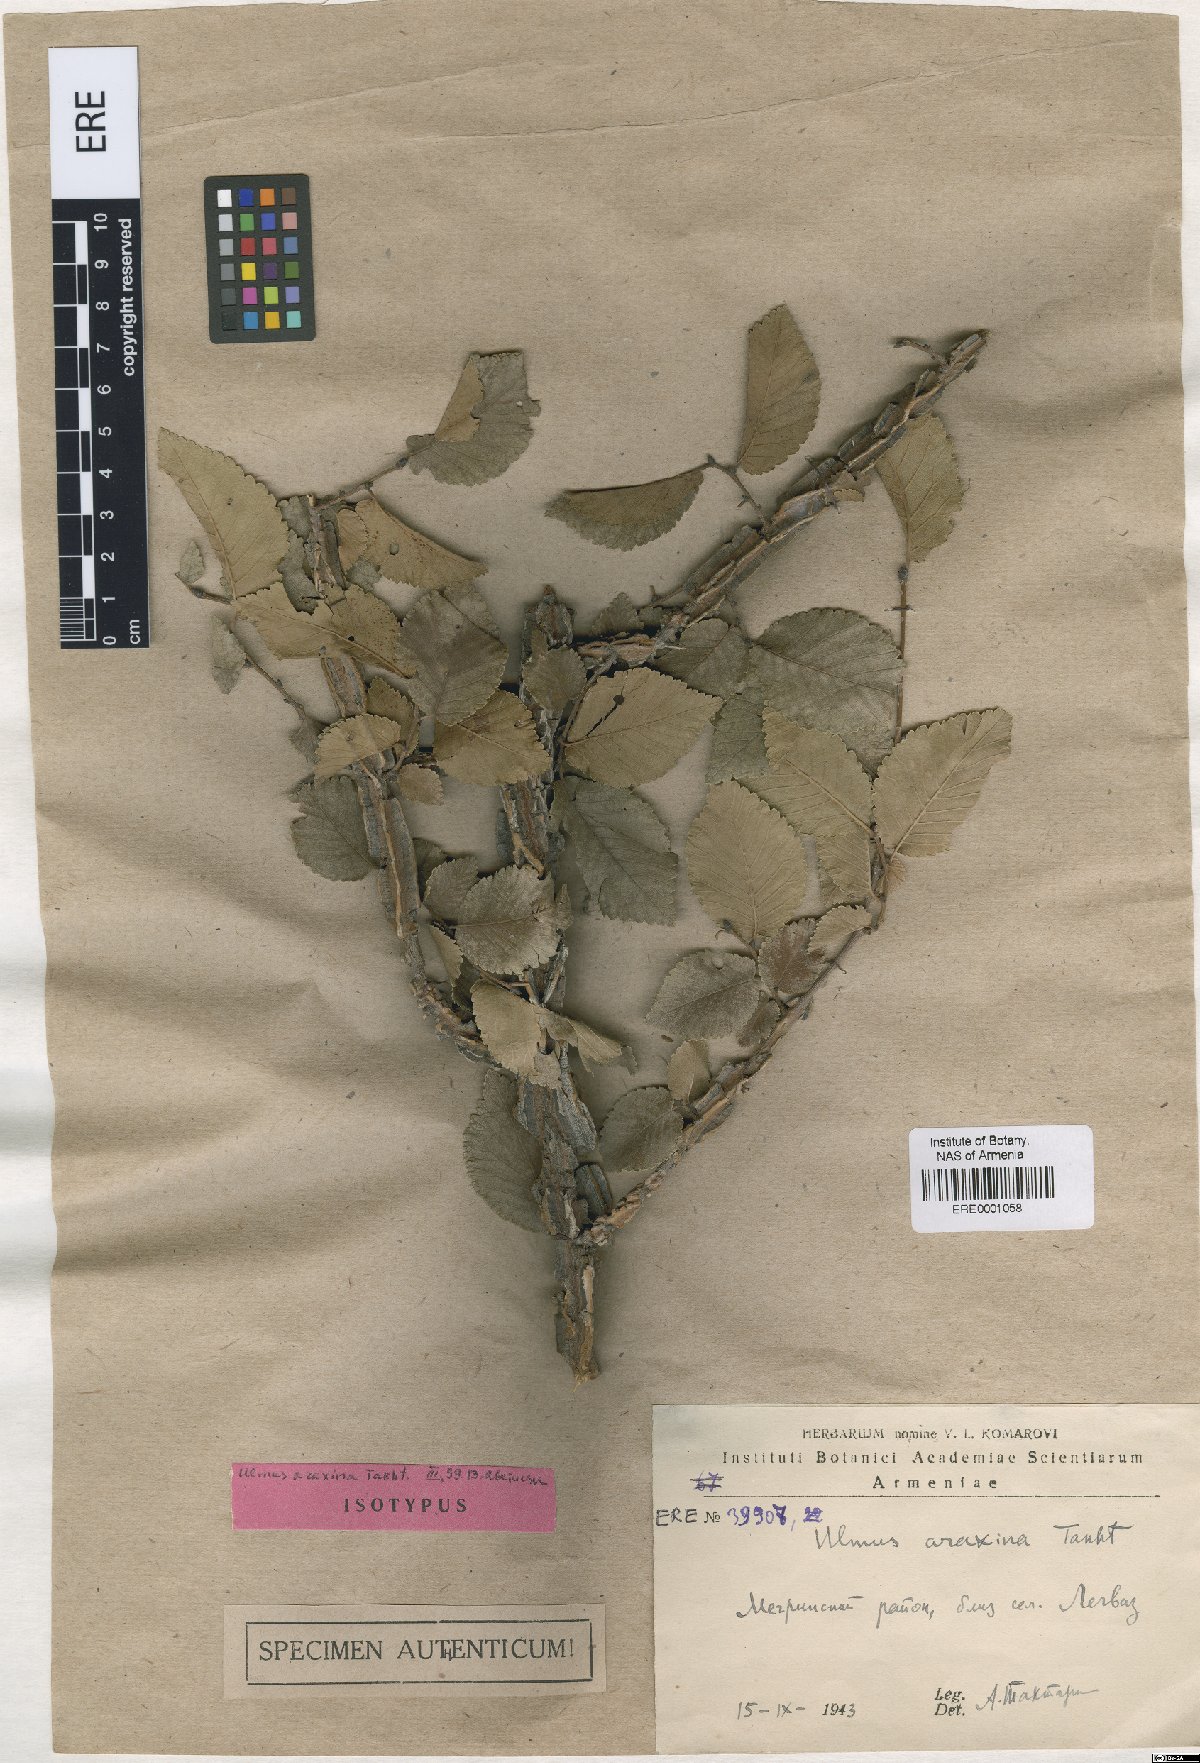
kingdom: Plantae
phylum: Tracheophyta
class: Magnoliopsida
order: Rosales
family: Ulmaceae
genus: Ulmus
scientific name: Ulmus minor
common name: Small-leaved elm
